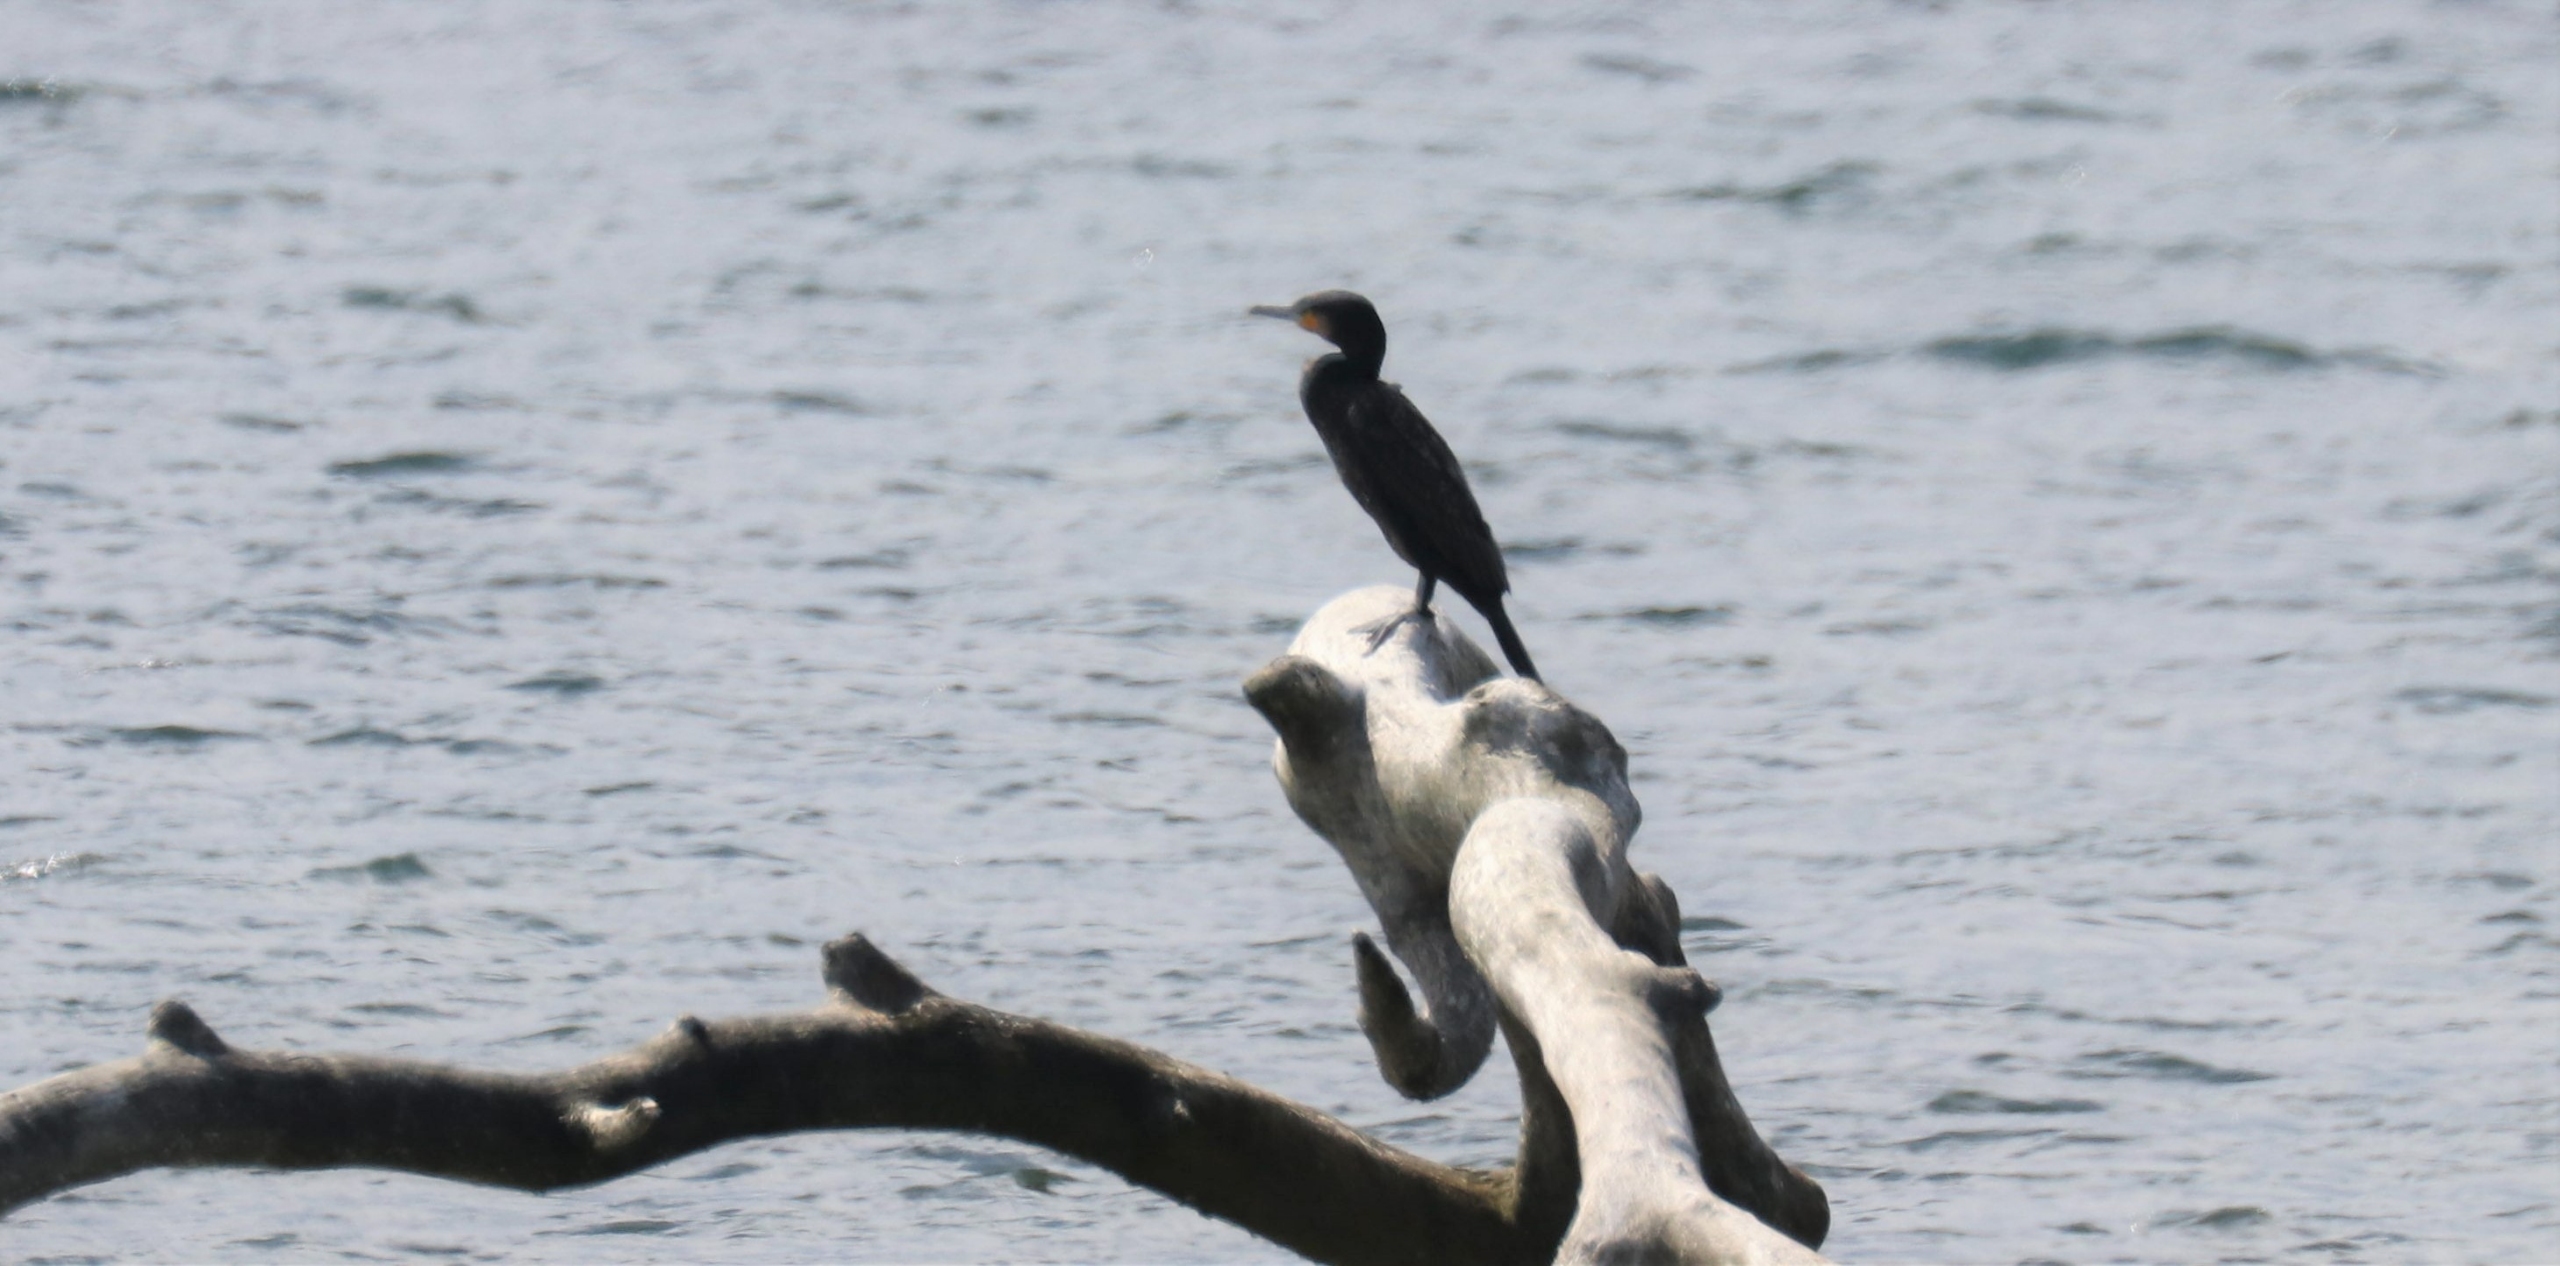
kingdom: Animalia
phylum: Chordata
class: Aves
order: Suliformes
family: Phalacrocoracidae
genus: Phalacrocorax
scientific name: Phalacrocorax carbo
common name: Skarv
